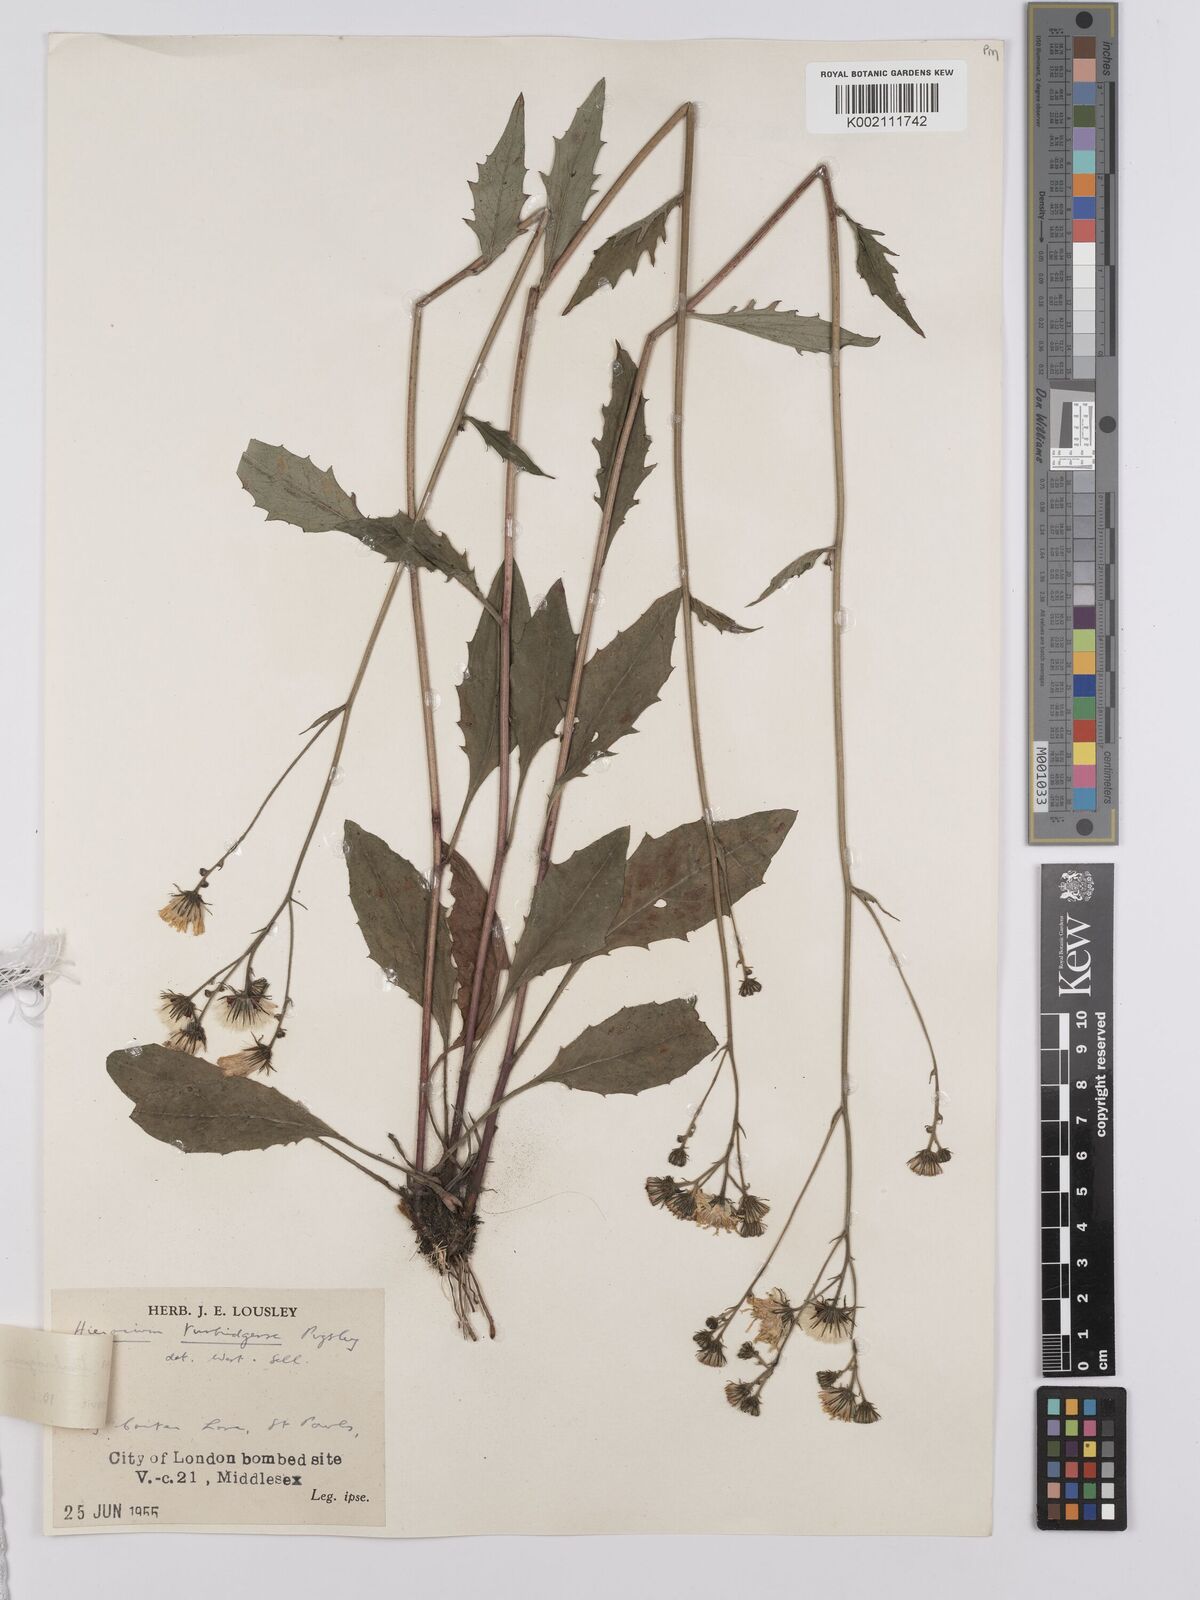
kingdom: Plantae
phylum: Tracheophyta
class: Magnoliopsida
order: Asterales
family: Asteraceae
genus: Hieracium
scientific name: Hieracium lachenalii
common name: Common hawkweed
